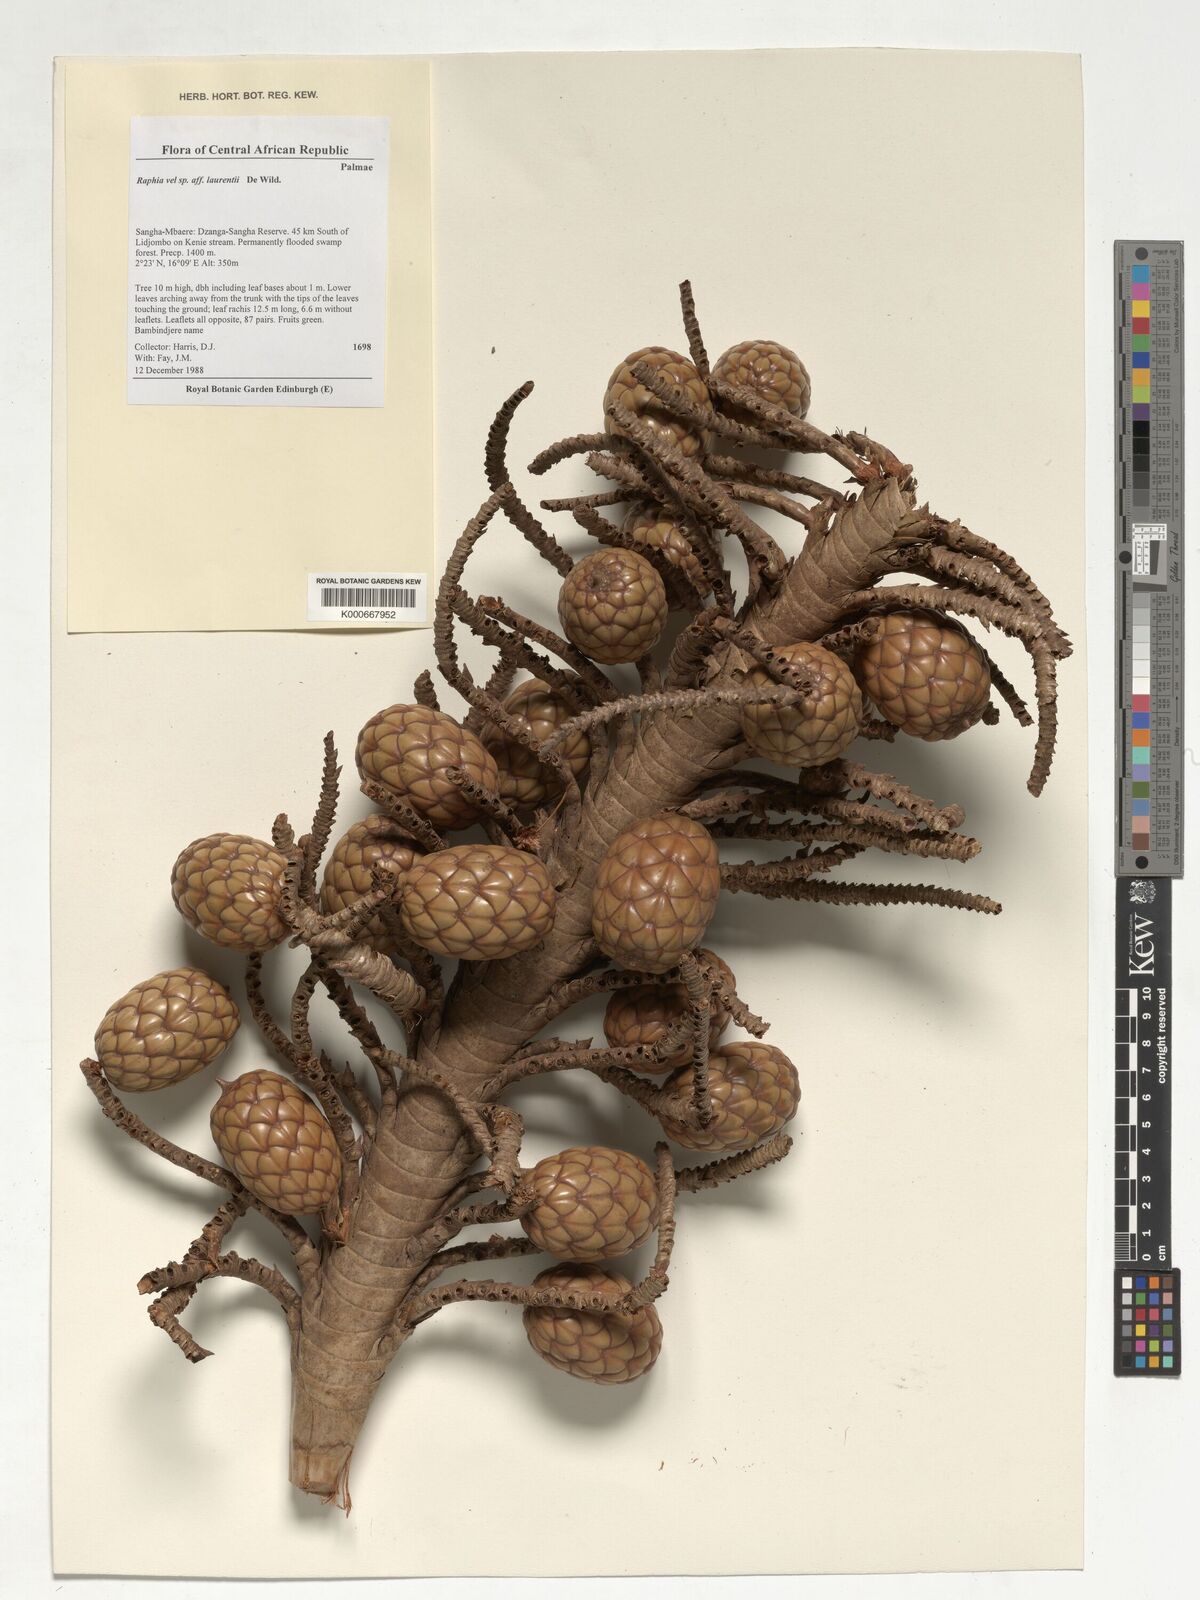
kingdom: Plantae
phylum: Tracheophyta
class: Liliopsida
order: Arecales
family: Arecaceae
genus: Raphia
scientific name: Raphia laurentii
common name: Raphia palm
